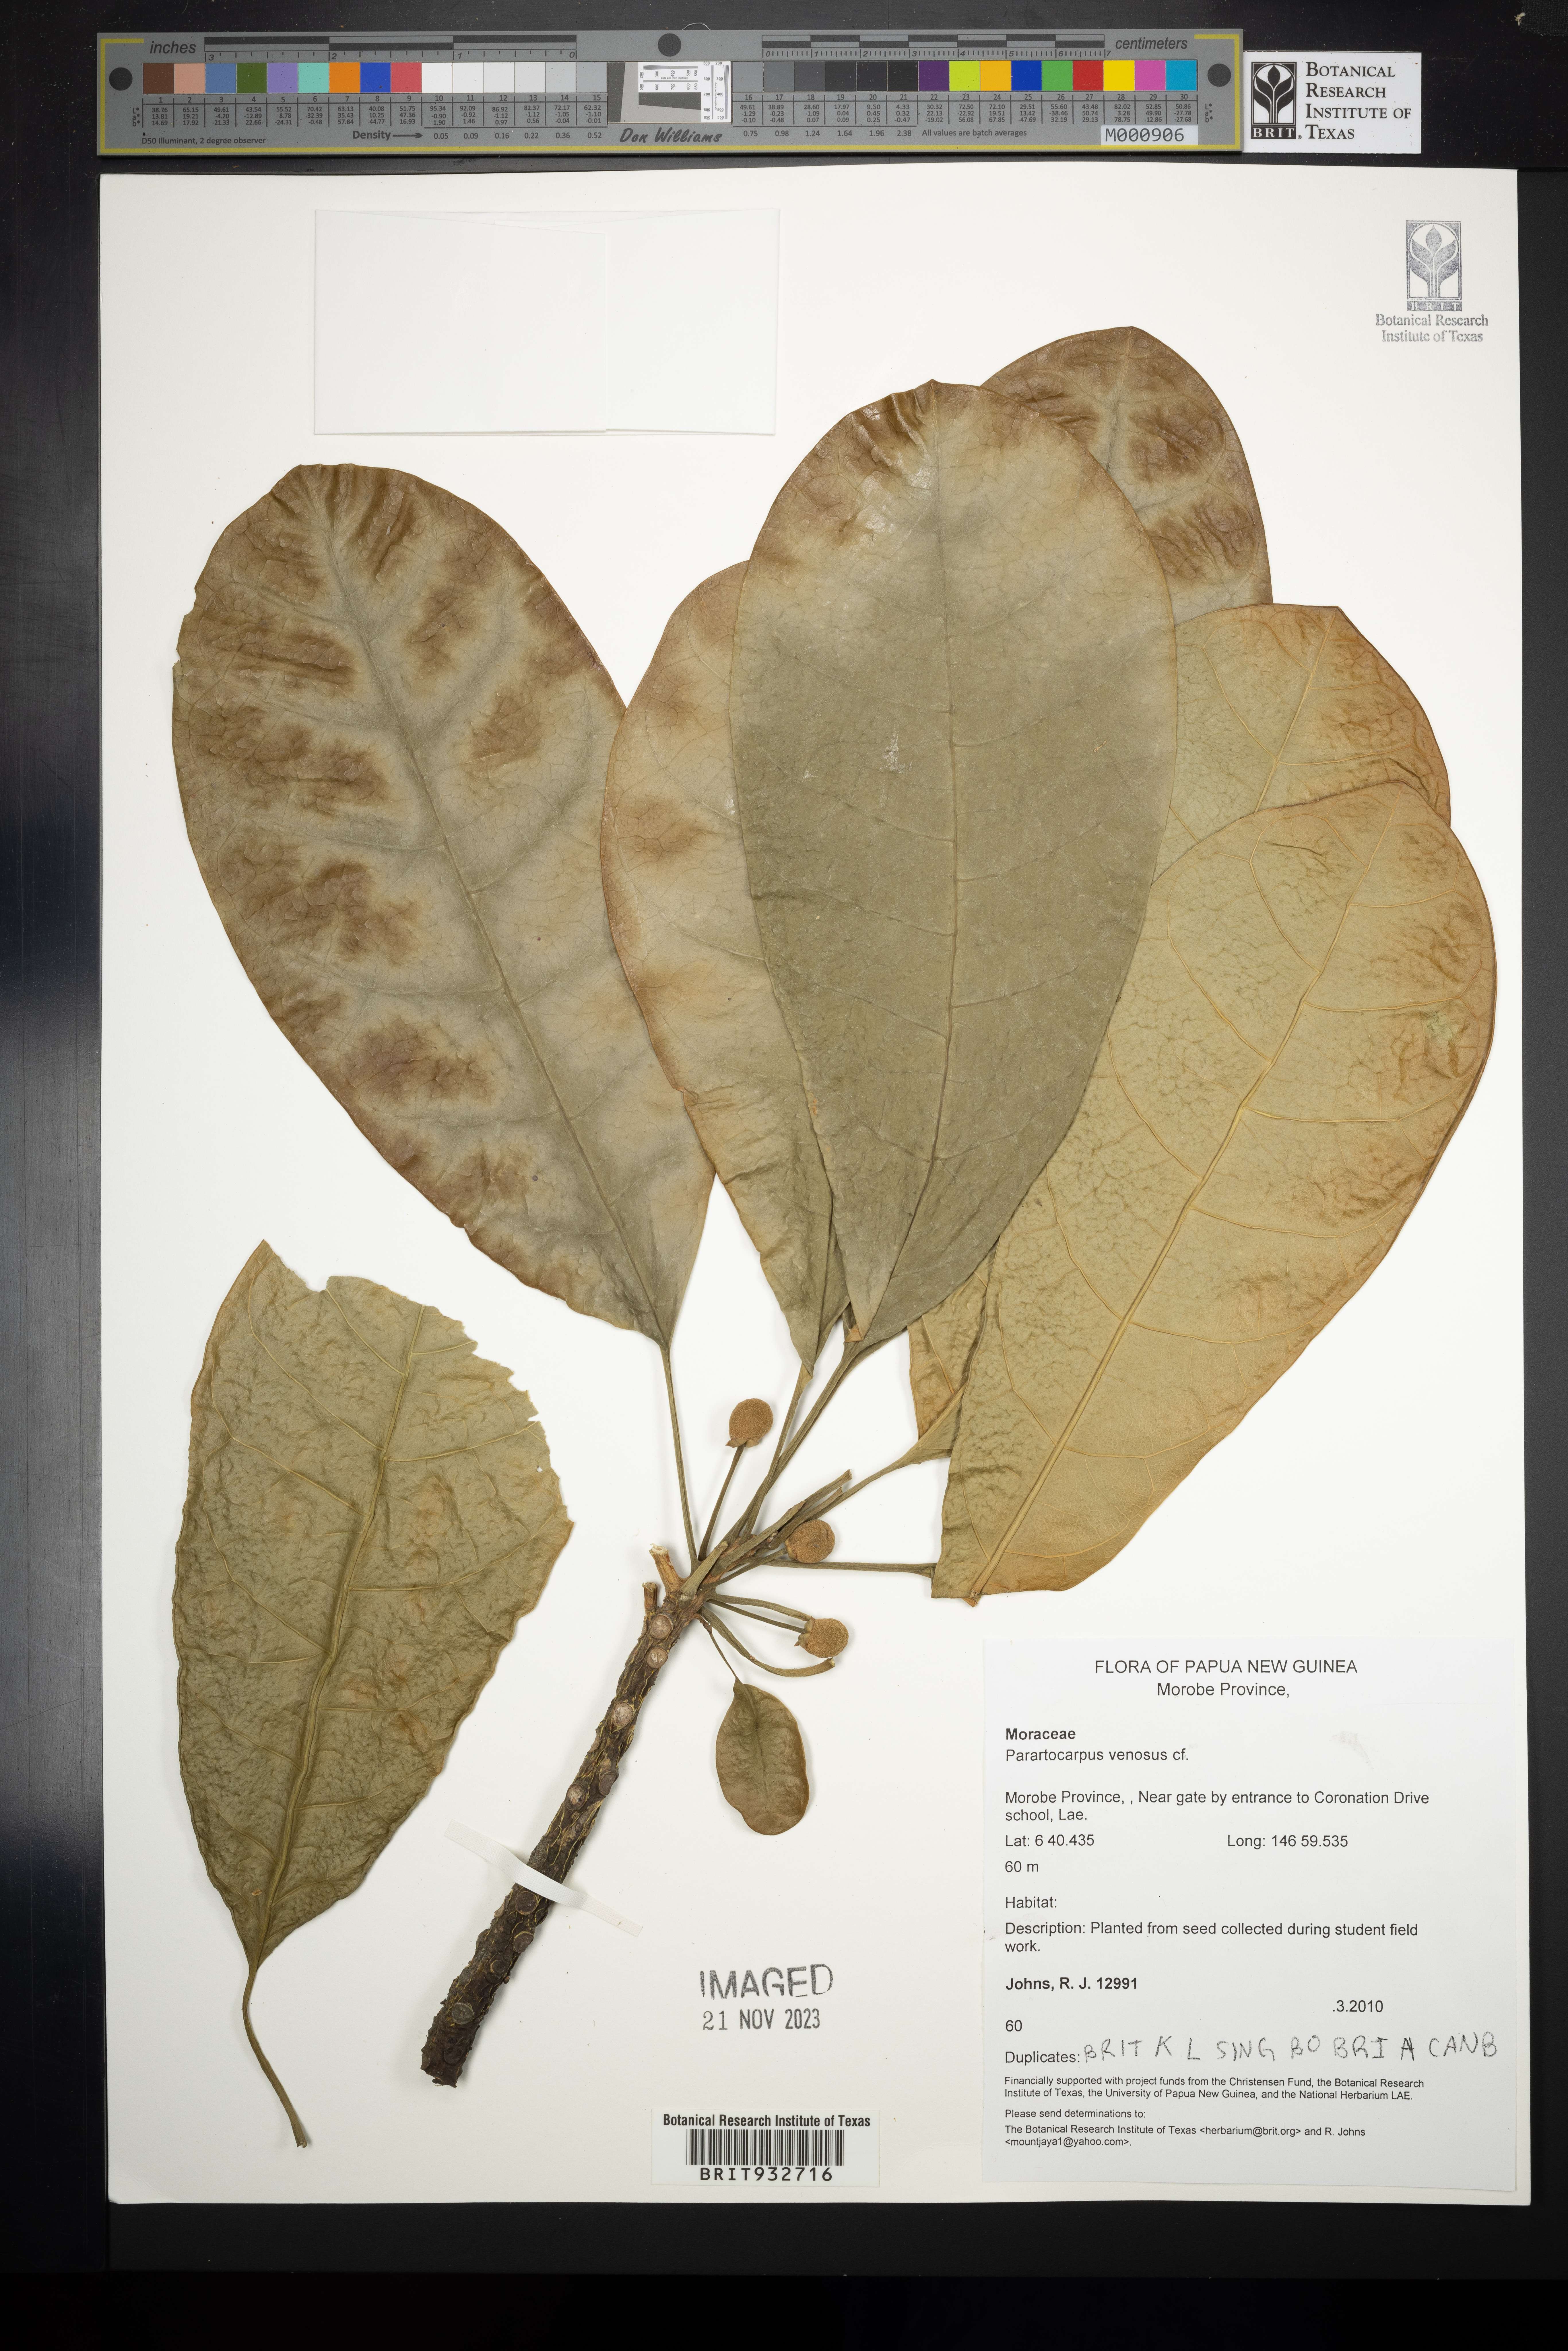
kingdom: Plantae
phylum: Tracheophyta
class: Magnoliopsida
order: Rosales
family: Moraceae
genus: Parartocarpus
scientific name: Parartocarpus
